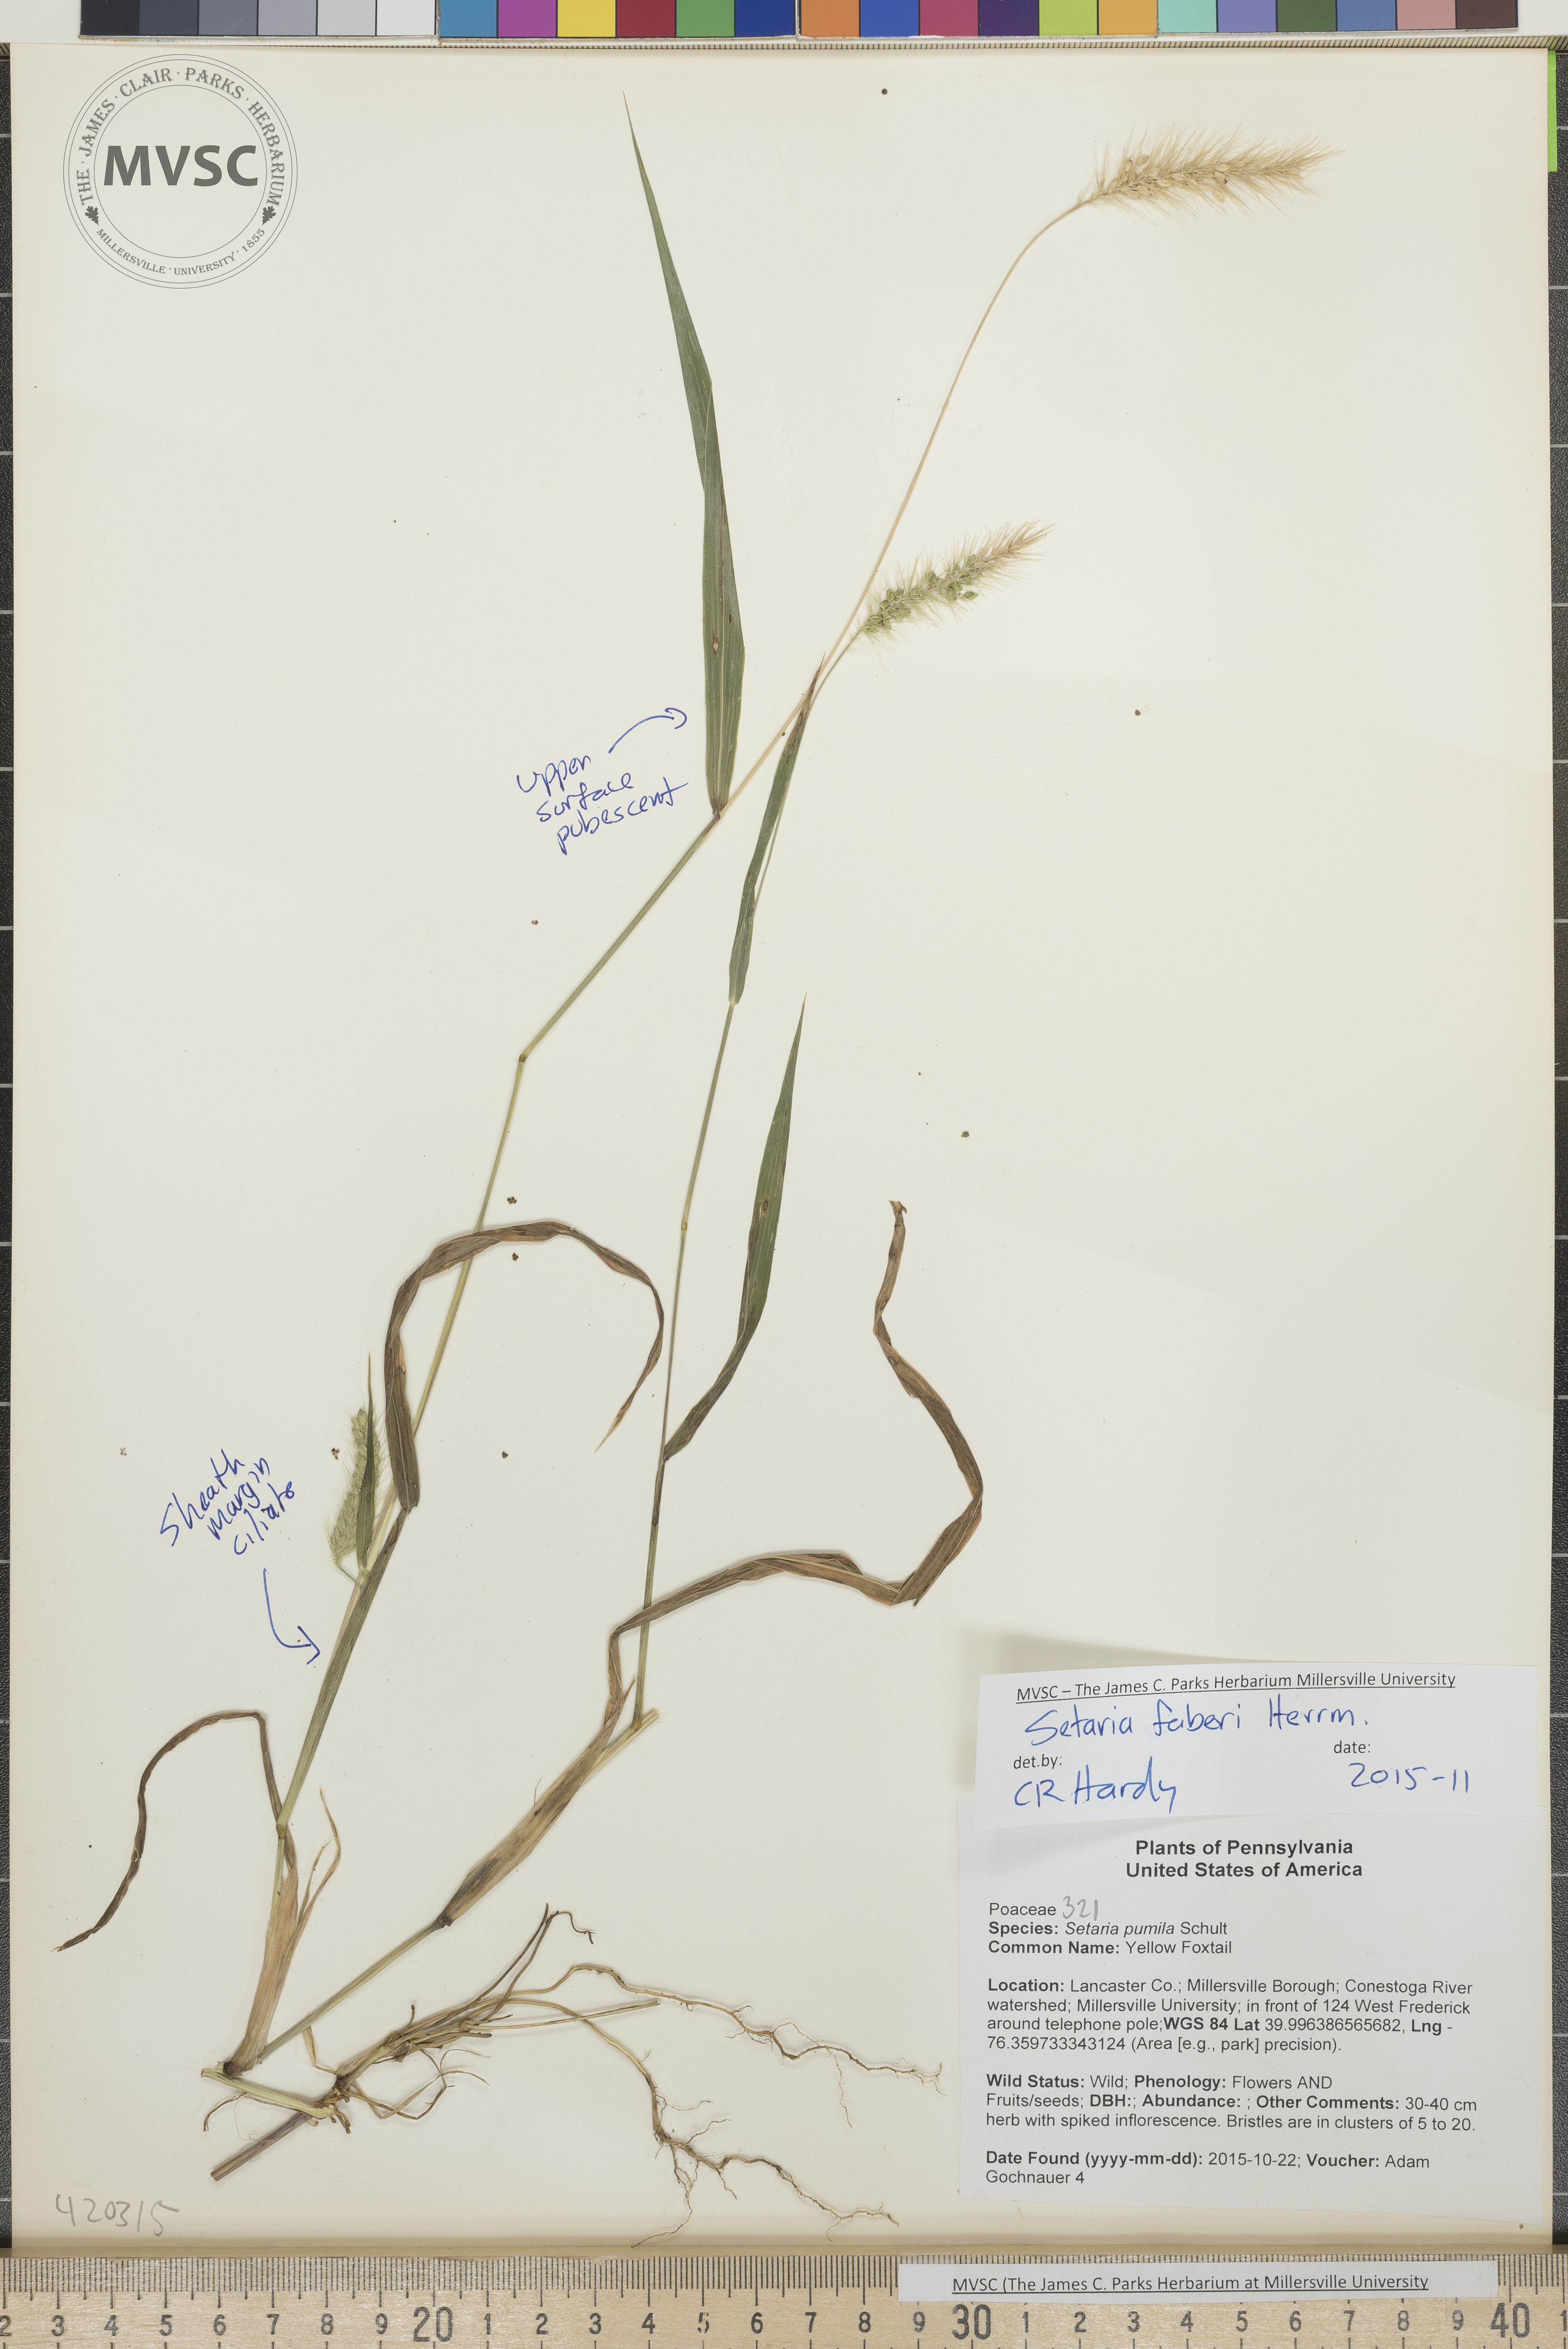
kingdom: Plantae
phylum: Tracheophyta
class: Liliopsida
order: Poales
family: Poaceae
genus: Setaria
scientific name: Setaria faberi
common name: Giant Foxtail
